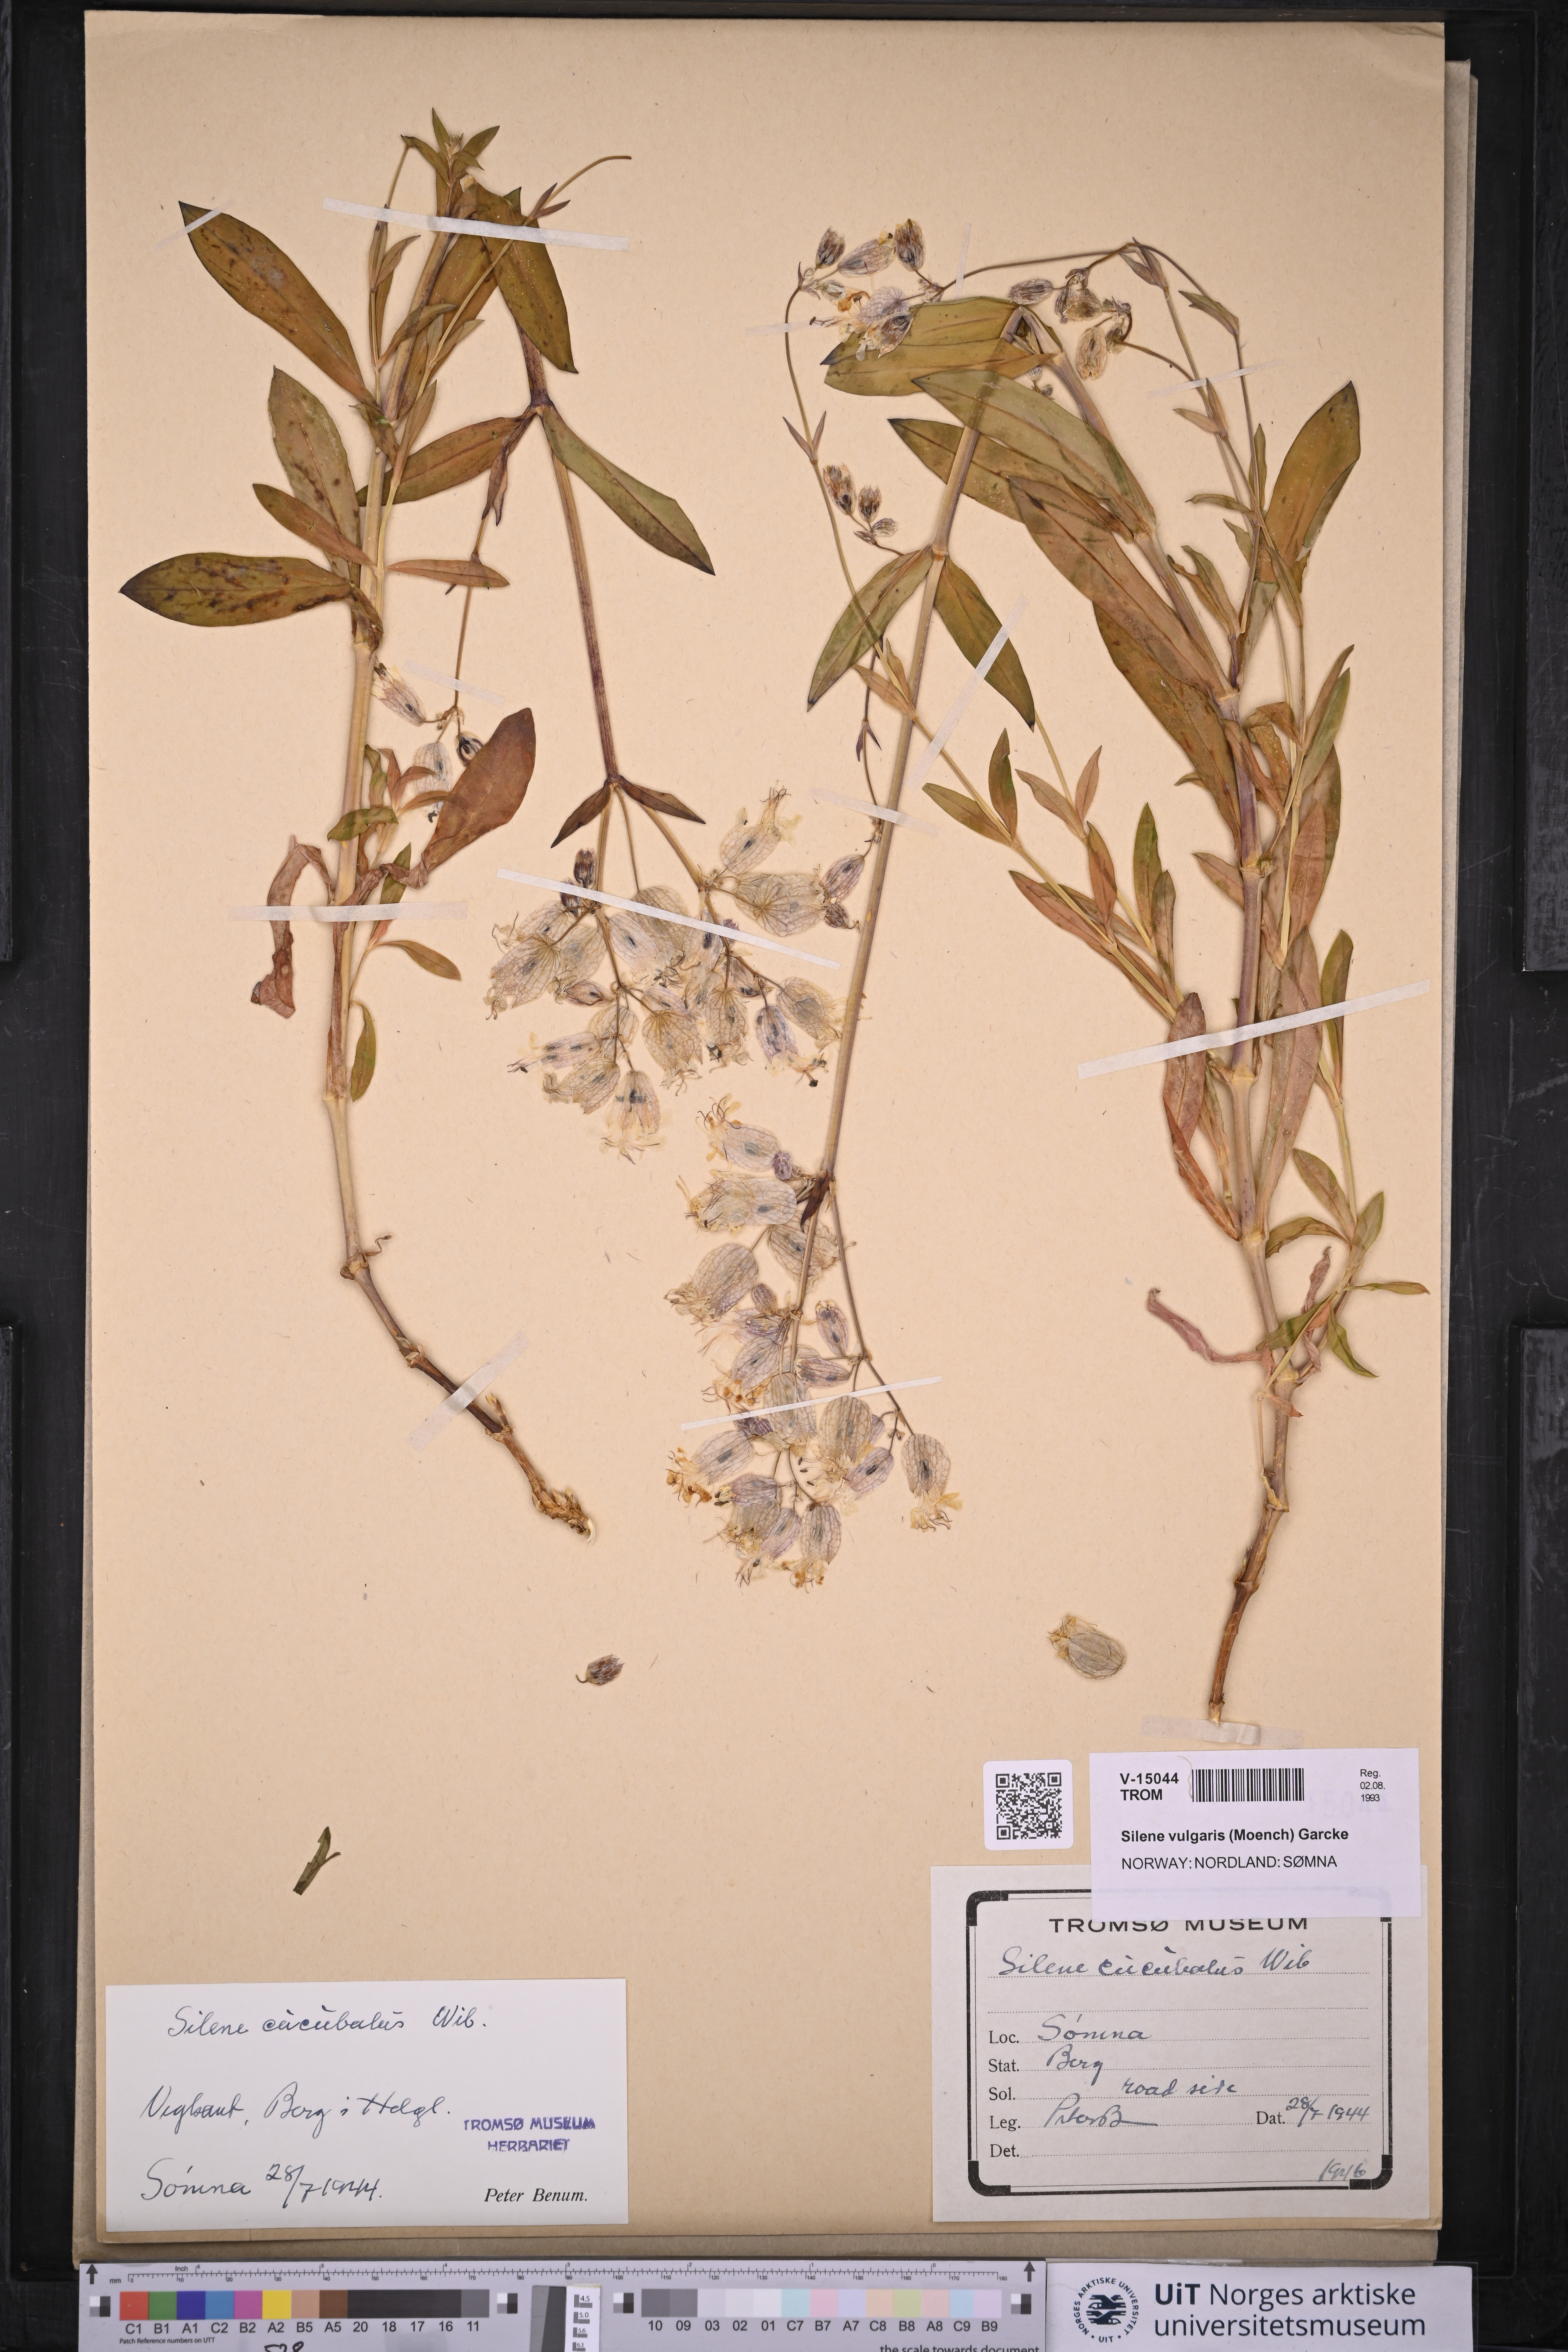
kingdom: Plantae
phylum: Tracheophyta
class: Magnoliopsida
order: Caryophyllales
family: Caryophyllaceae
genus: Silene
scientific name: Silene vulgaris
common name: Bladder campion
